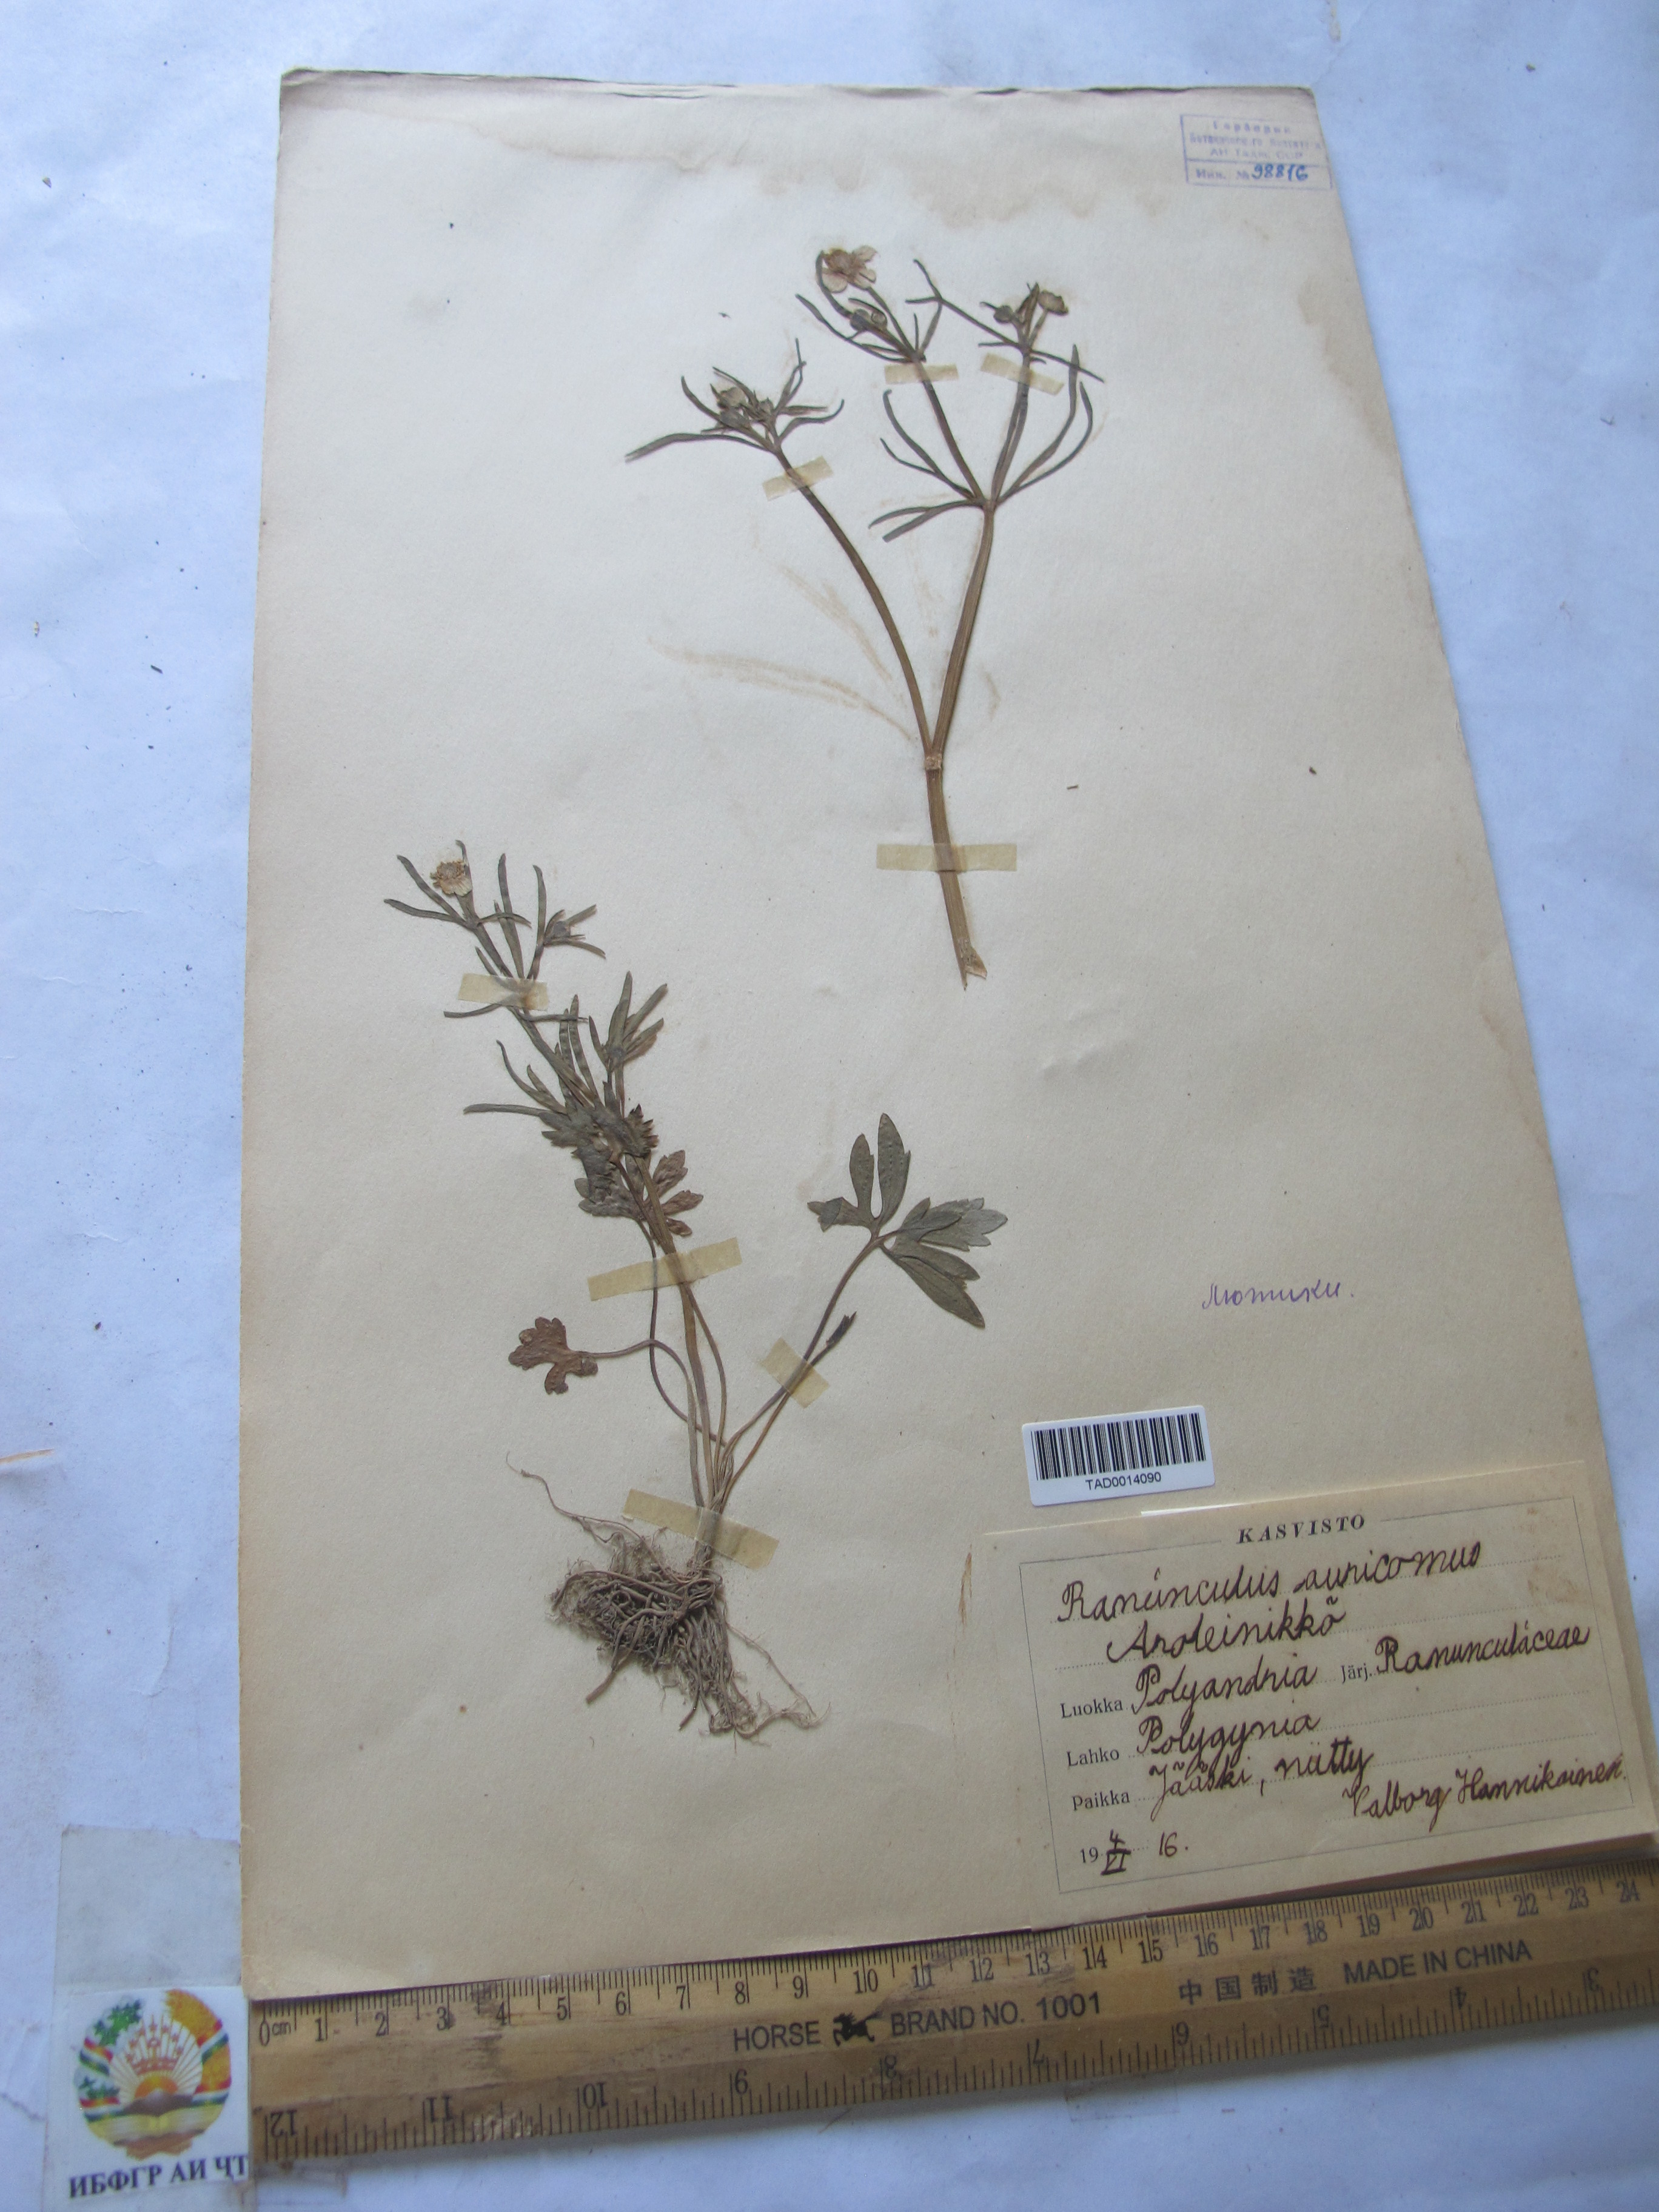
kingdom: Plantae
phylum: Tracheophyta
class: Magnoliopsida
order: Ranunculales
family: Ranunculaceae
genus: Ranunculus
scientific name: Ranunculus auricomus
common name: Goldilocks buttercup
